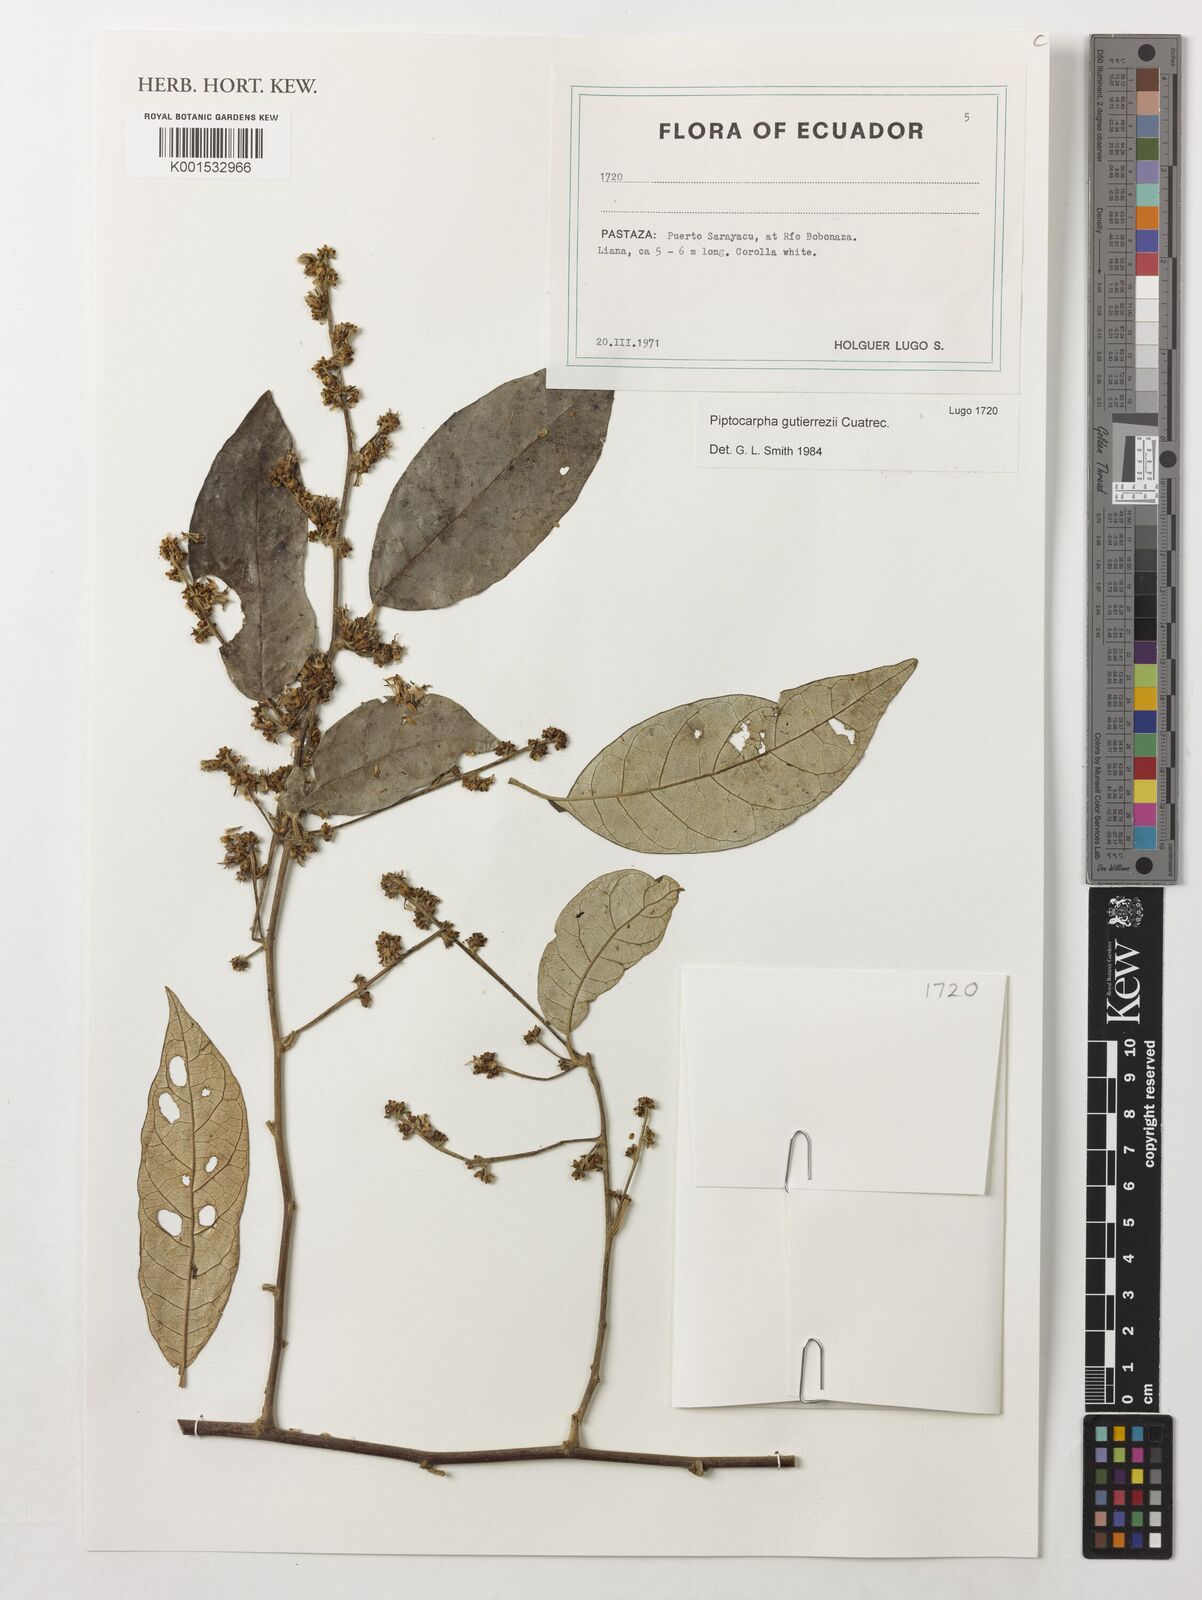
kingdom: Plantae
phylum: Tracheophyta
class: Magnoliopsida
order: Asterales
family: Asteraceae
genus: Piptocarpha
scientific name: Piptocarpha gutierrezii
